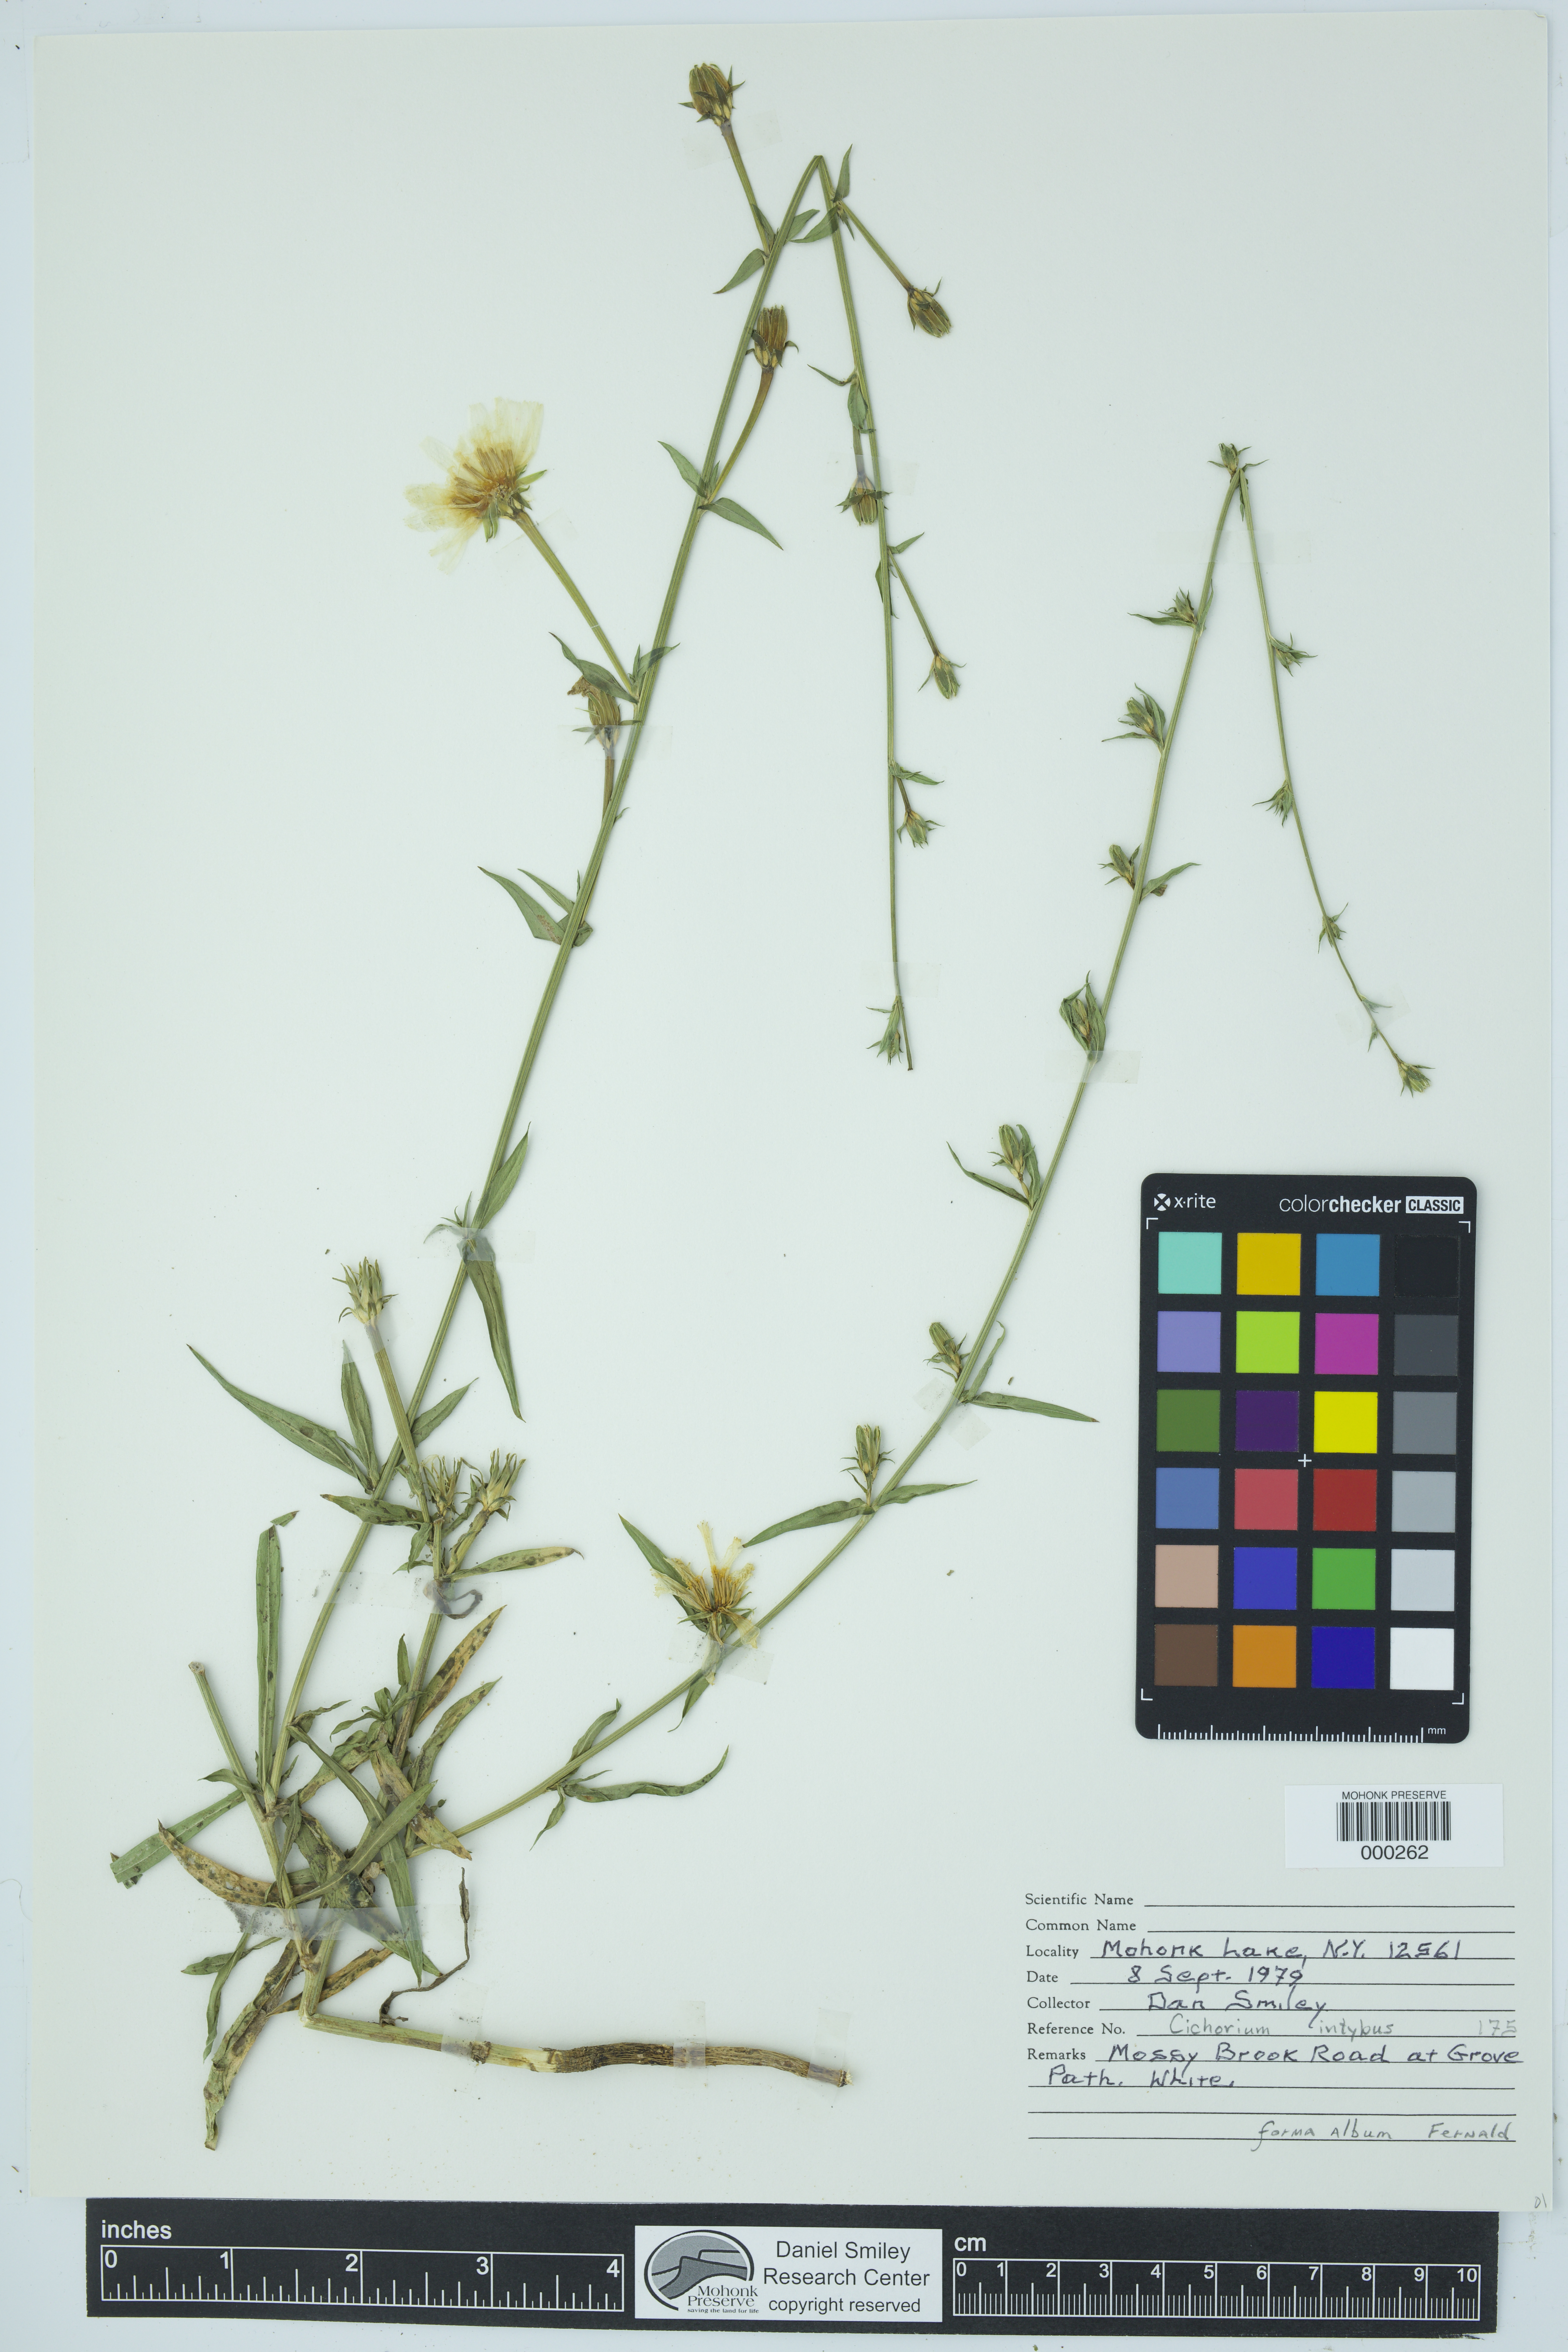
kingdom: Plantae
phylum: Tracheophyta
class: Magnoliopsida
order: Asterales
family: Asteraceae
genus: Cichorium
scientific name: Cichorium intybus
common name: Chicory
